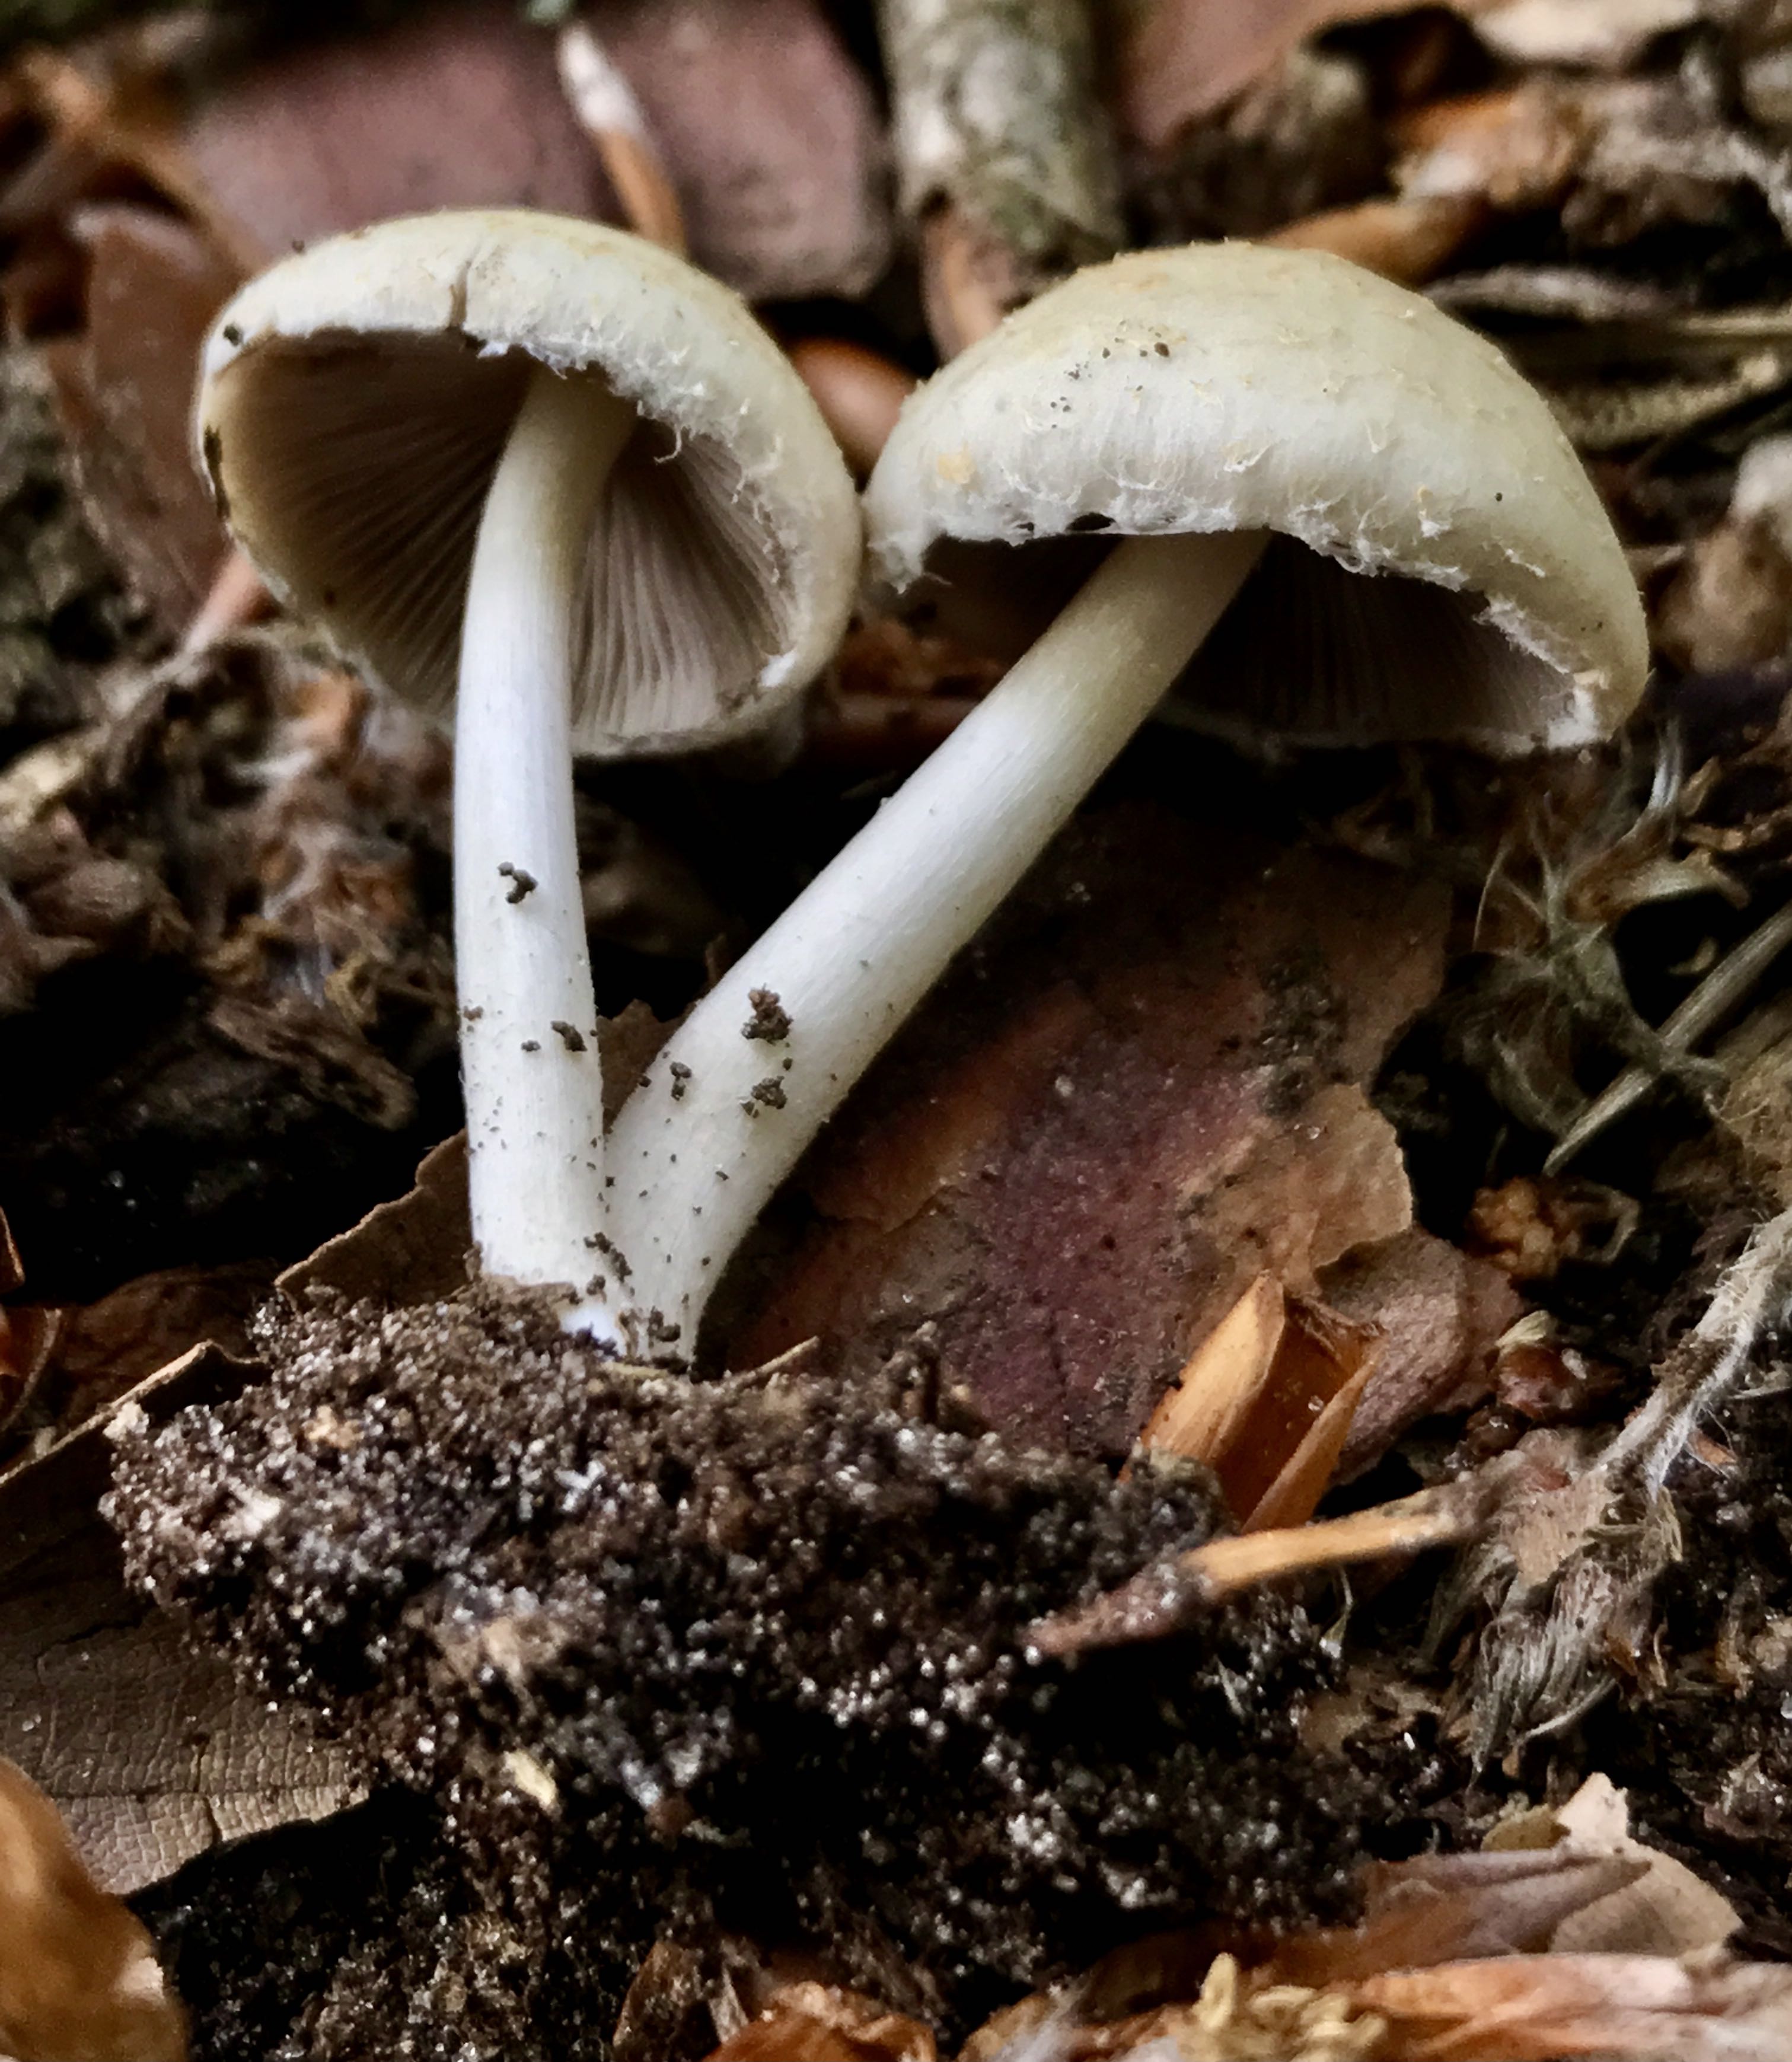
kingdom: Fungi
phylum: Basidiomycota
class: Agaricomycetes
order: Agaricales
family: Psathyrellaceae
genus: Candolleomyces
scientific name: Candolleomyces candolleanus
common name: Candolles mørkhat
